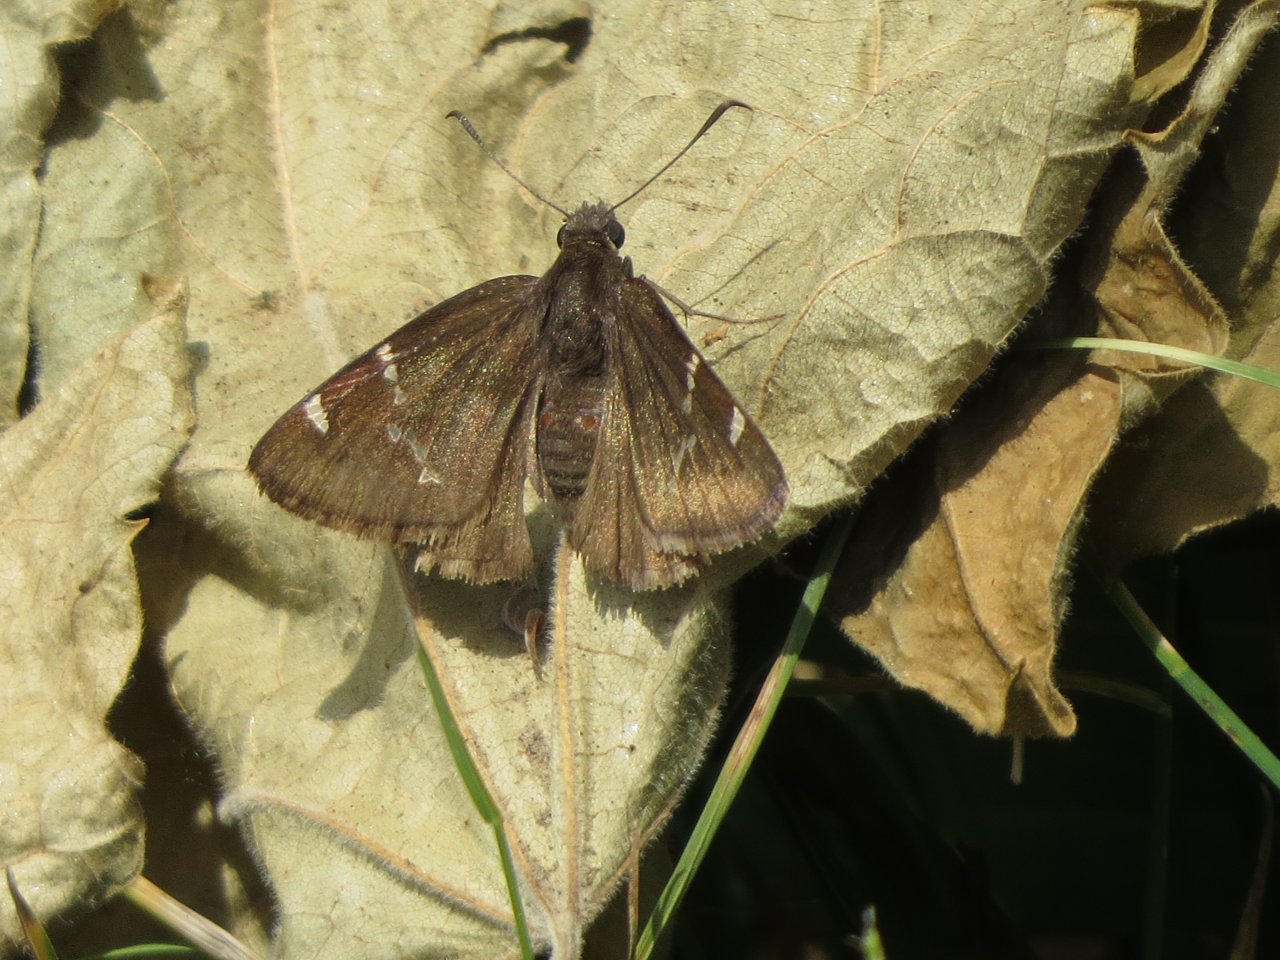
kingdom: Animalia
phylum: Arthropoda
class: Insecta
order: Lepidoptera
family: Hesperiidae
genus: Autochton
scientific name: Autochton
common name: Southern Cloudywing
